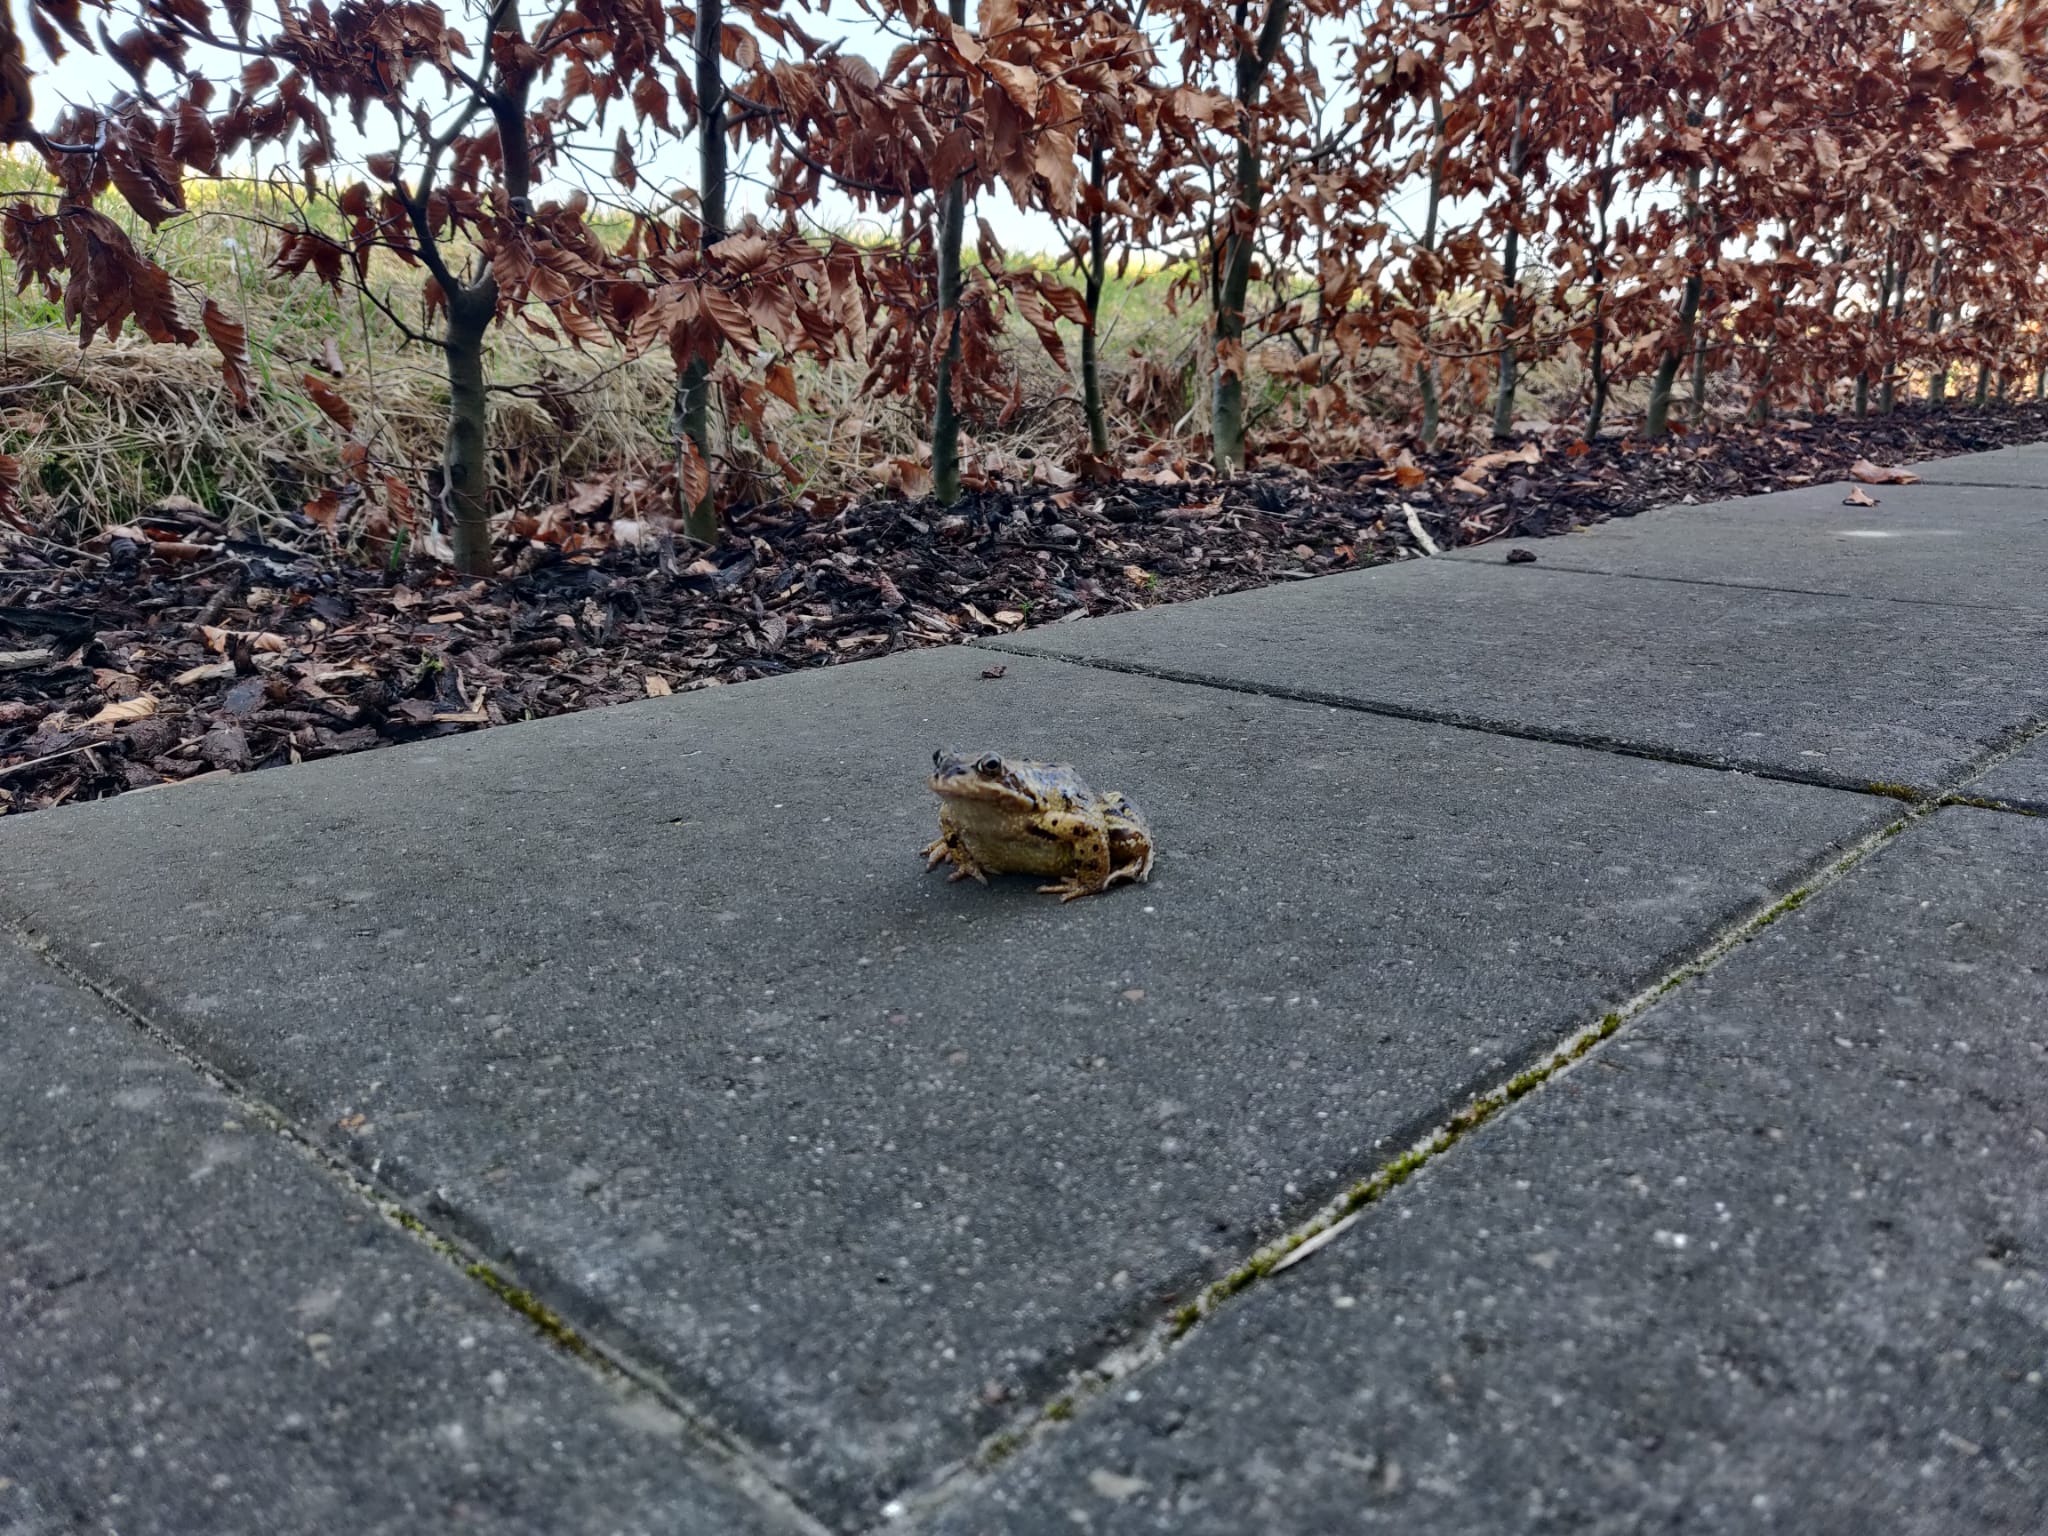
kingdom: Animalia
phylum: Chordata
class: Amphibia
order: Anura
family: Ranidae
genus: Rana
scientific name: Rana temporaria
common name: Butsnudet frø
